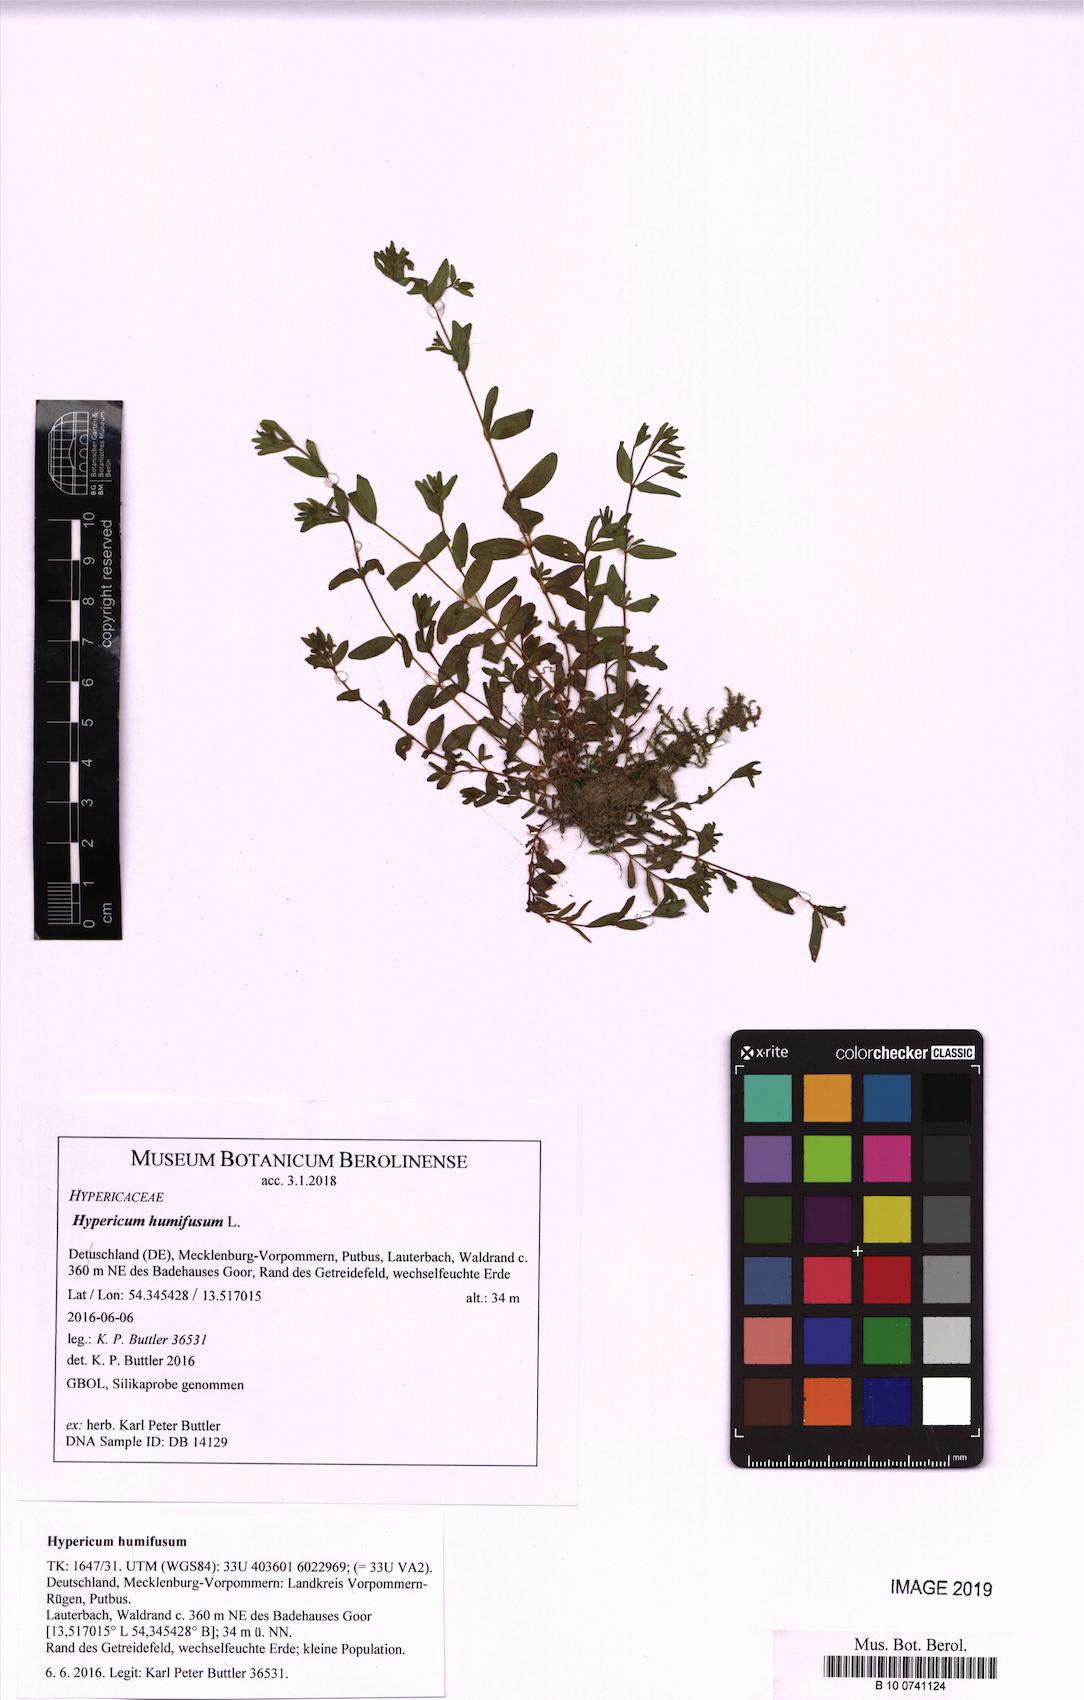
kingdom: Plantae
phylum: Tracheophyta
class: Magnoliopsida
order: Malpighiales
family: Hypericaceae
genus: Hypericum
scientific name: Hypericum humifusum
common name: Trailing st. john's-wort
